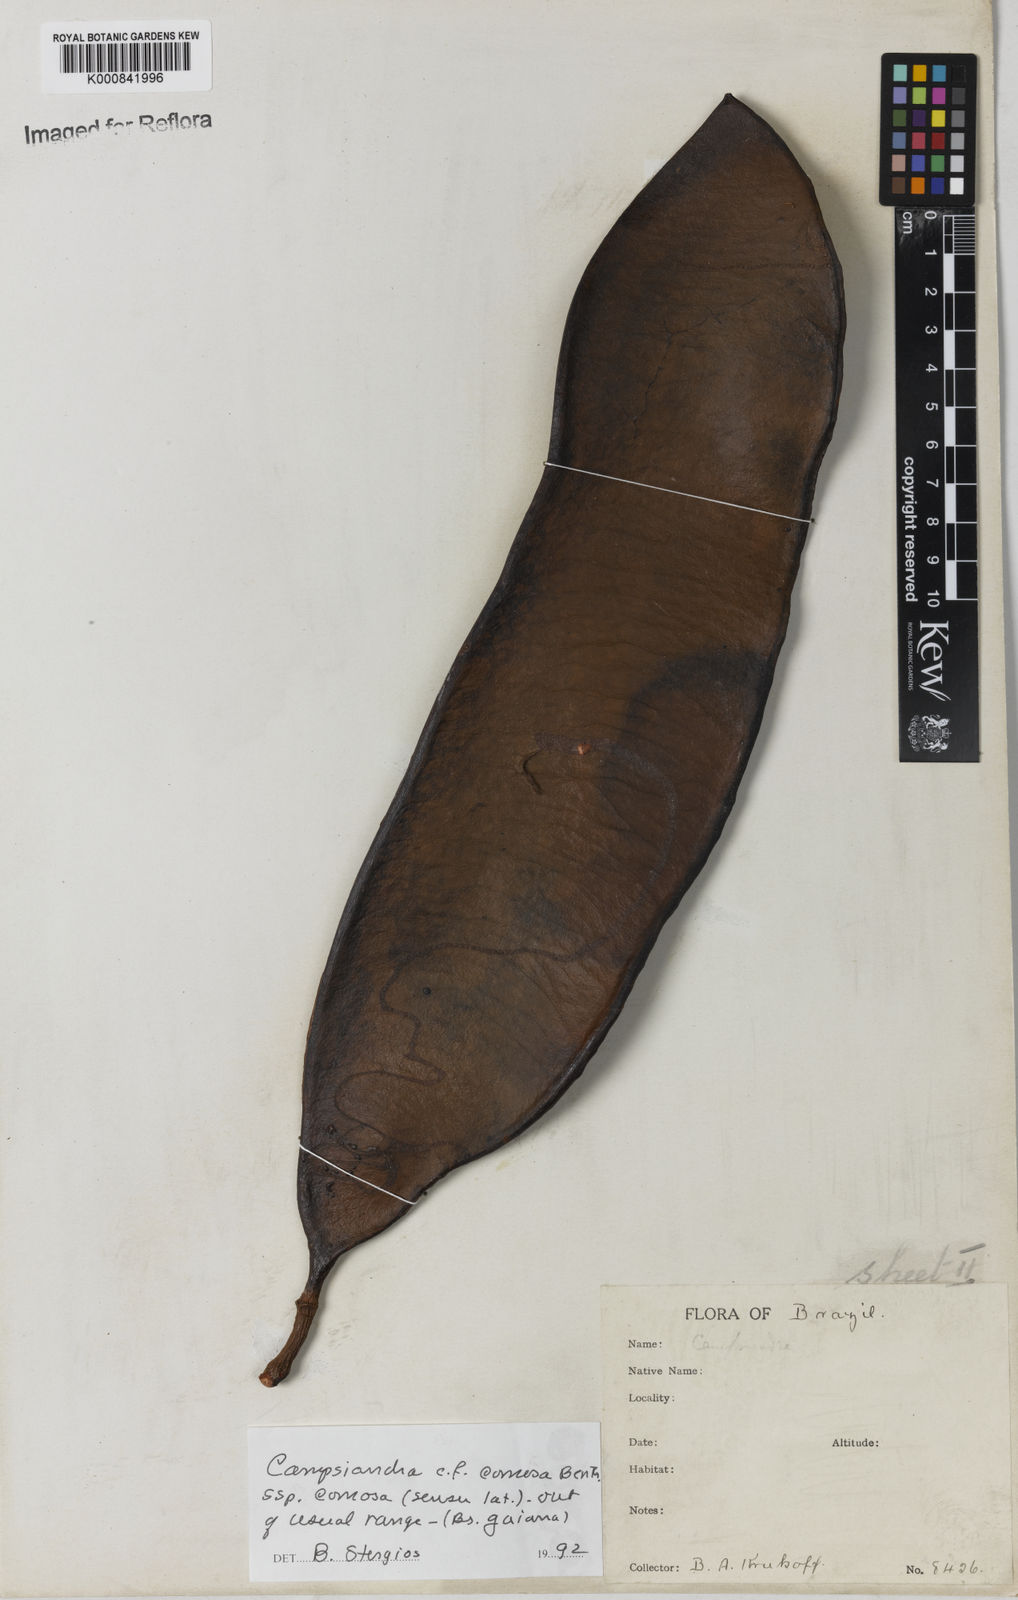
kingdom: Plantae
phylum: Tracheophyta
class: Magnoliopsida
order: Fabales
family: Fabaceae
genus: Campsiandra
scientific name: Campsiandra comosa
